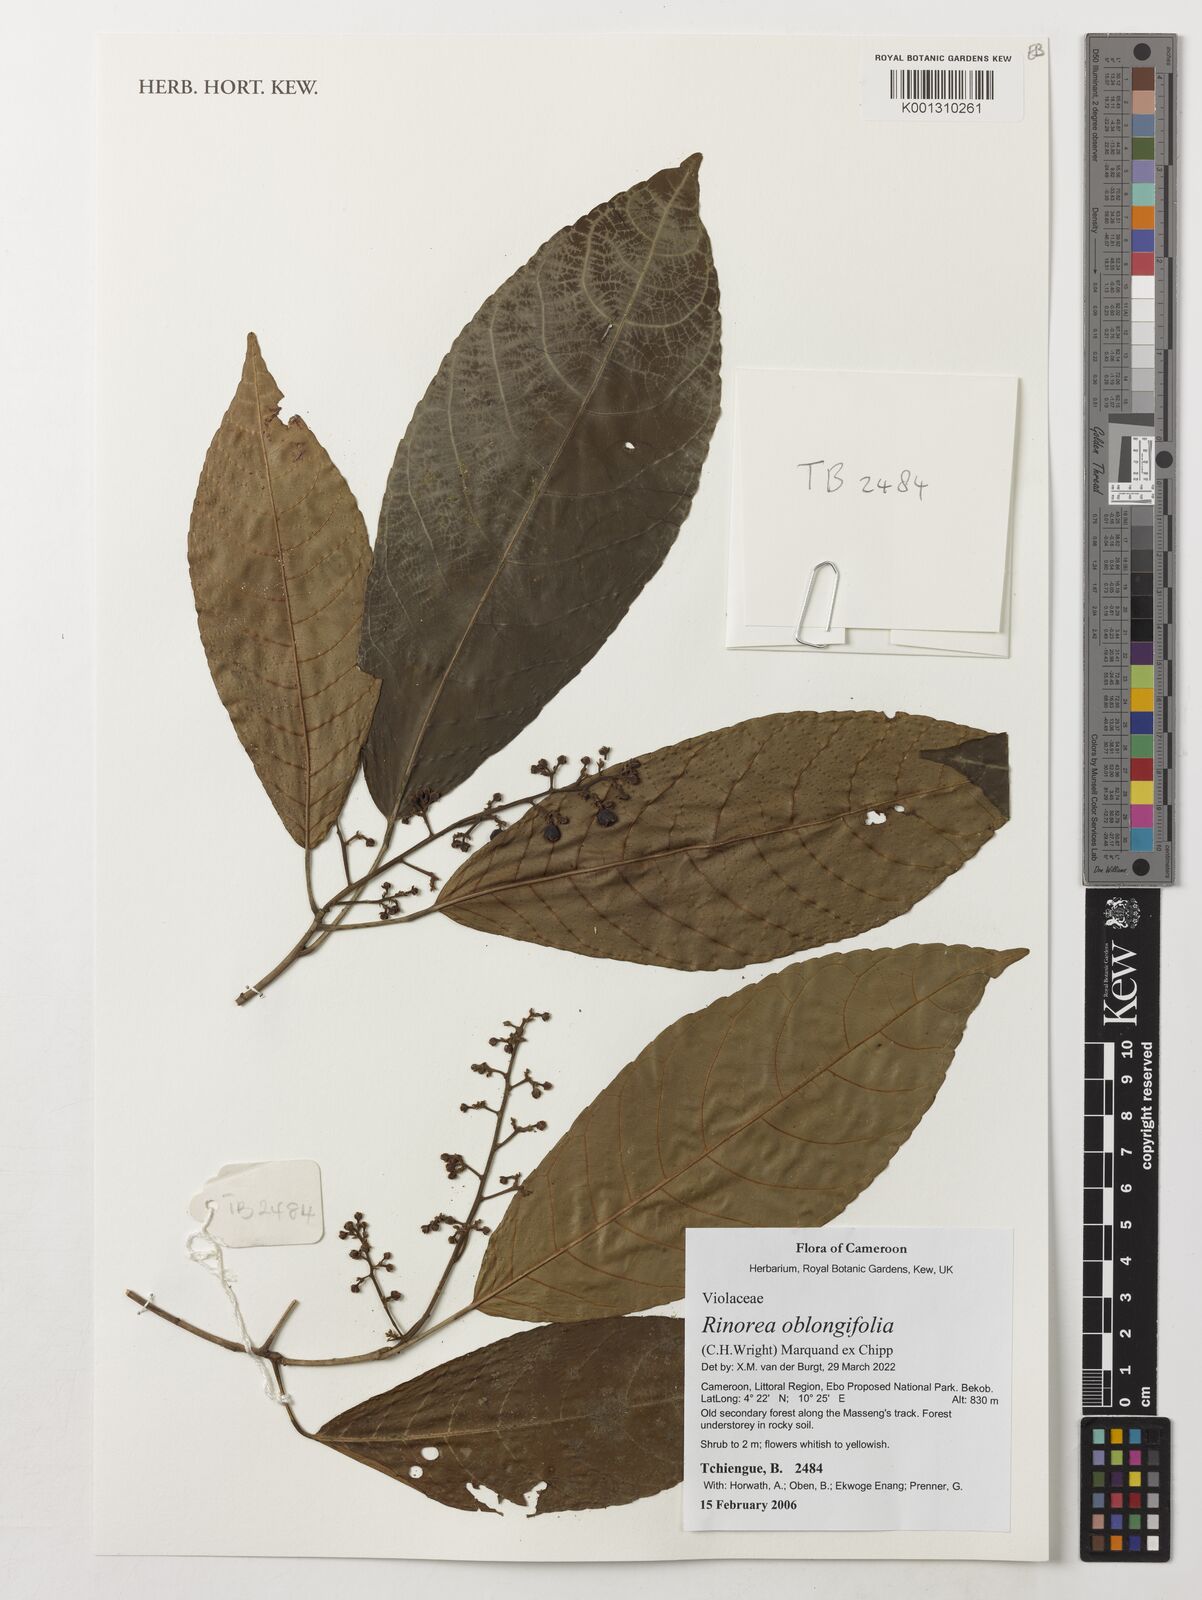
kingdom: Plantae
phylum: Tracheophyta
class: Magnoliopsida
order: Apiales
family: Pittosporaceae
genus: Marianthus
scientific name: Marianthus coeruleopunctatus
